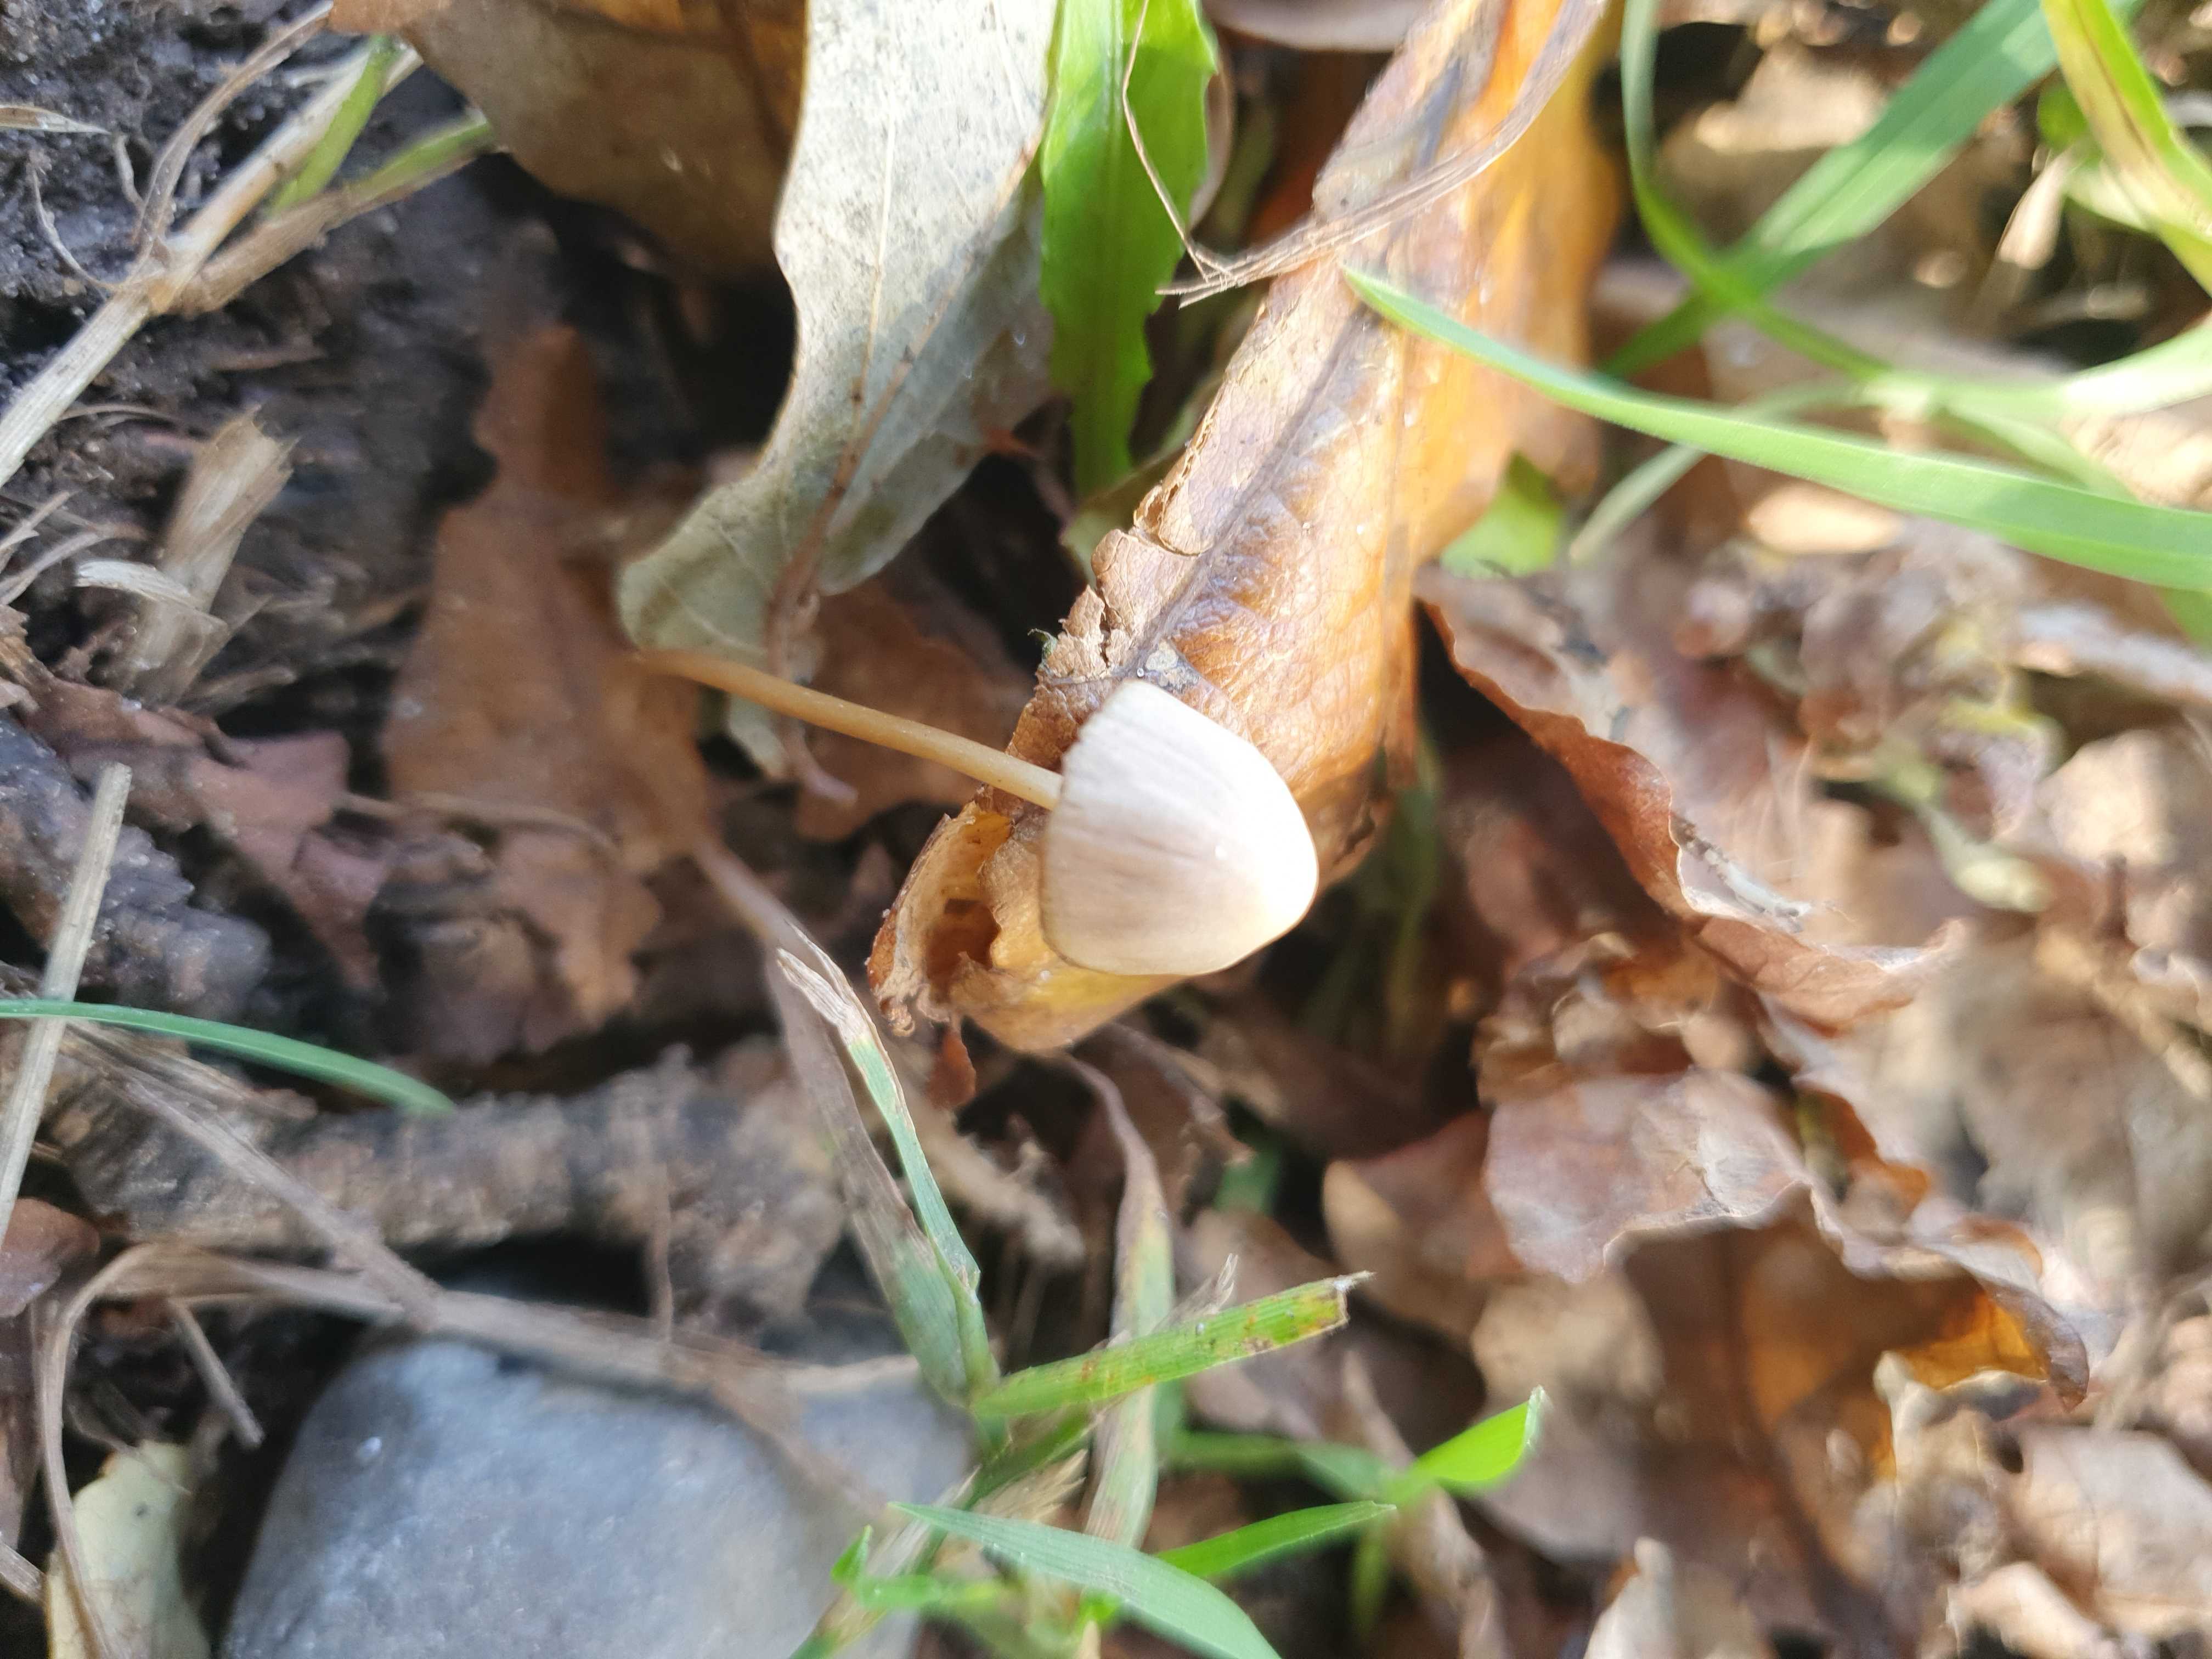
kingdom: Fungi
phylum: Basidiomycota
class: Agaricomycetes
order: Agaricales
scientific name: Agaricales
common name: champignonordenen
